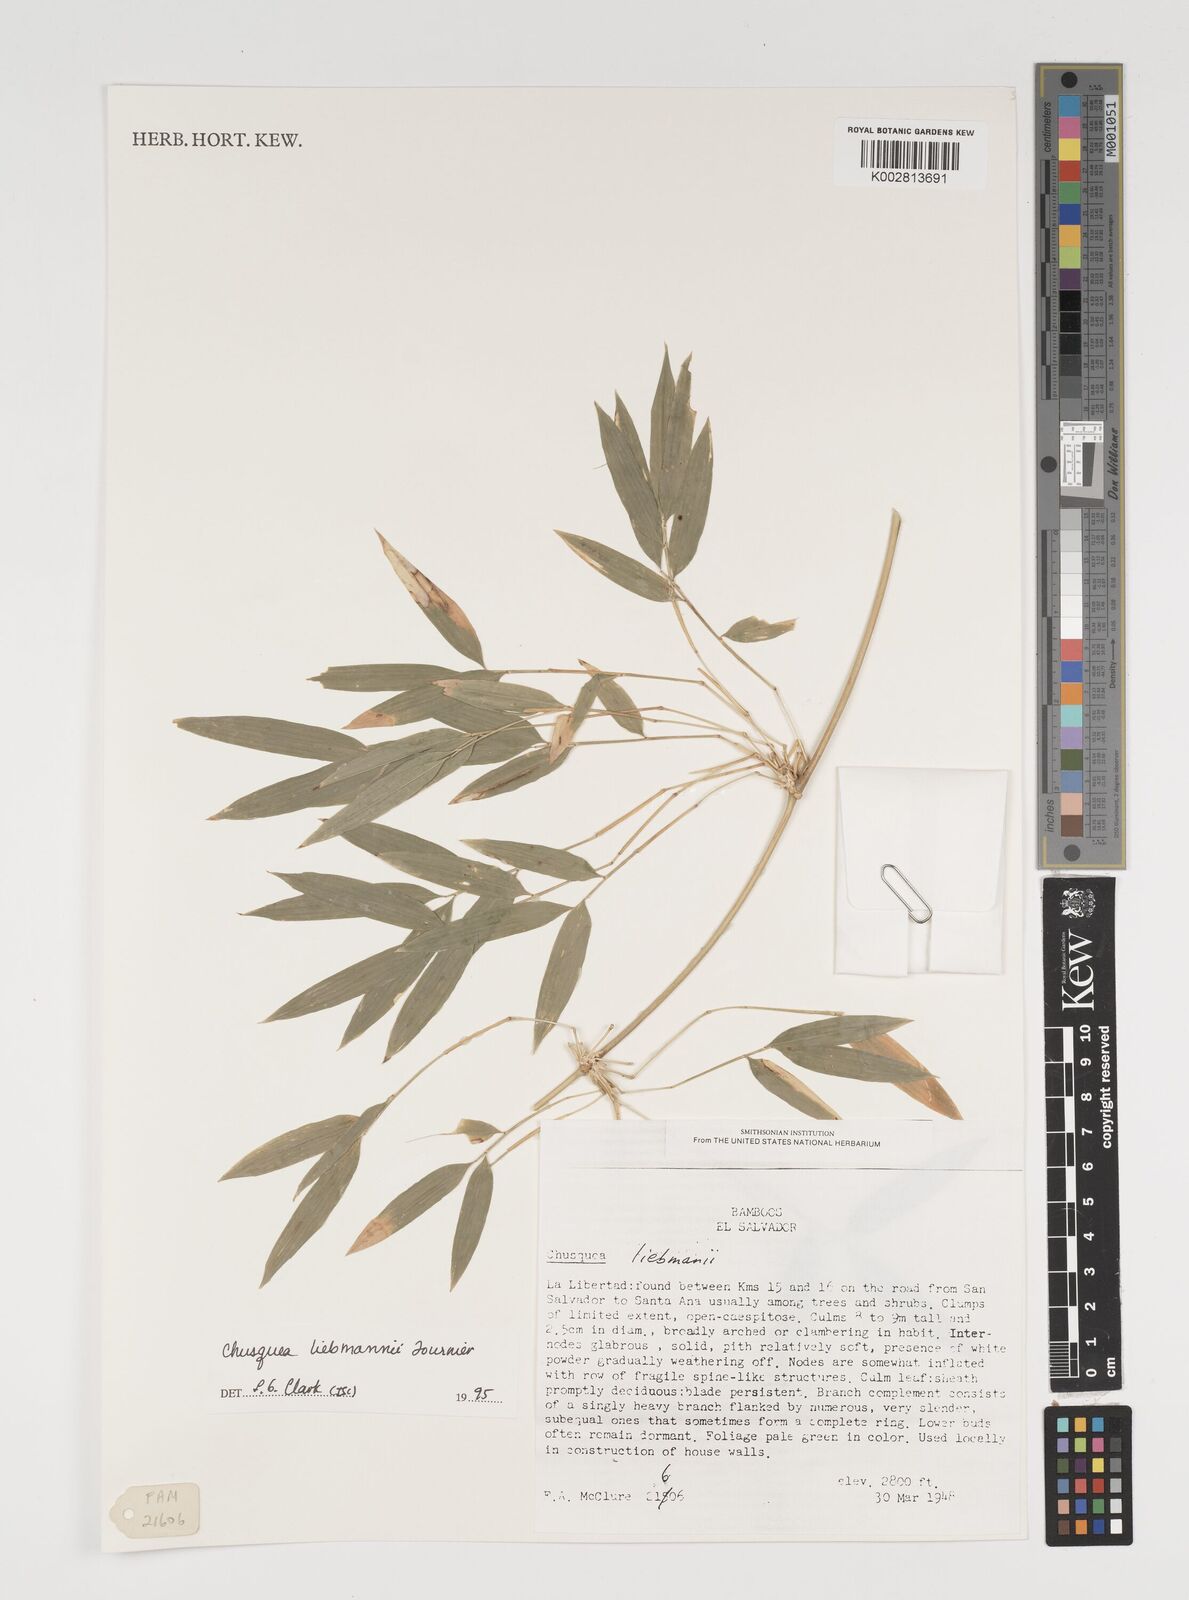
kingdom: Plantae
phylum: Tracheophyta
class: Liliopsida
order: Poales
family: Poaceae
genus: Chusquea
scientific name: Chusquea liebmannii
